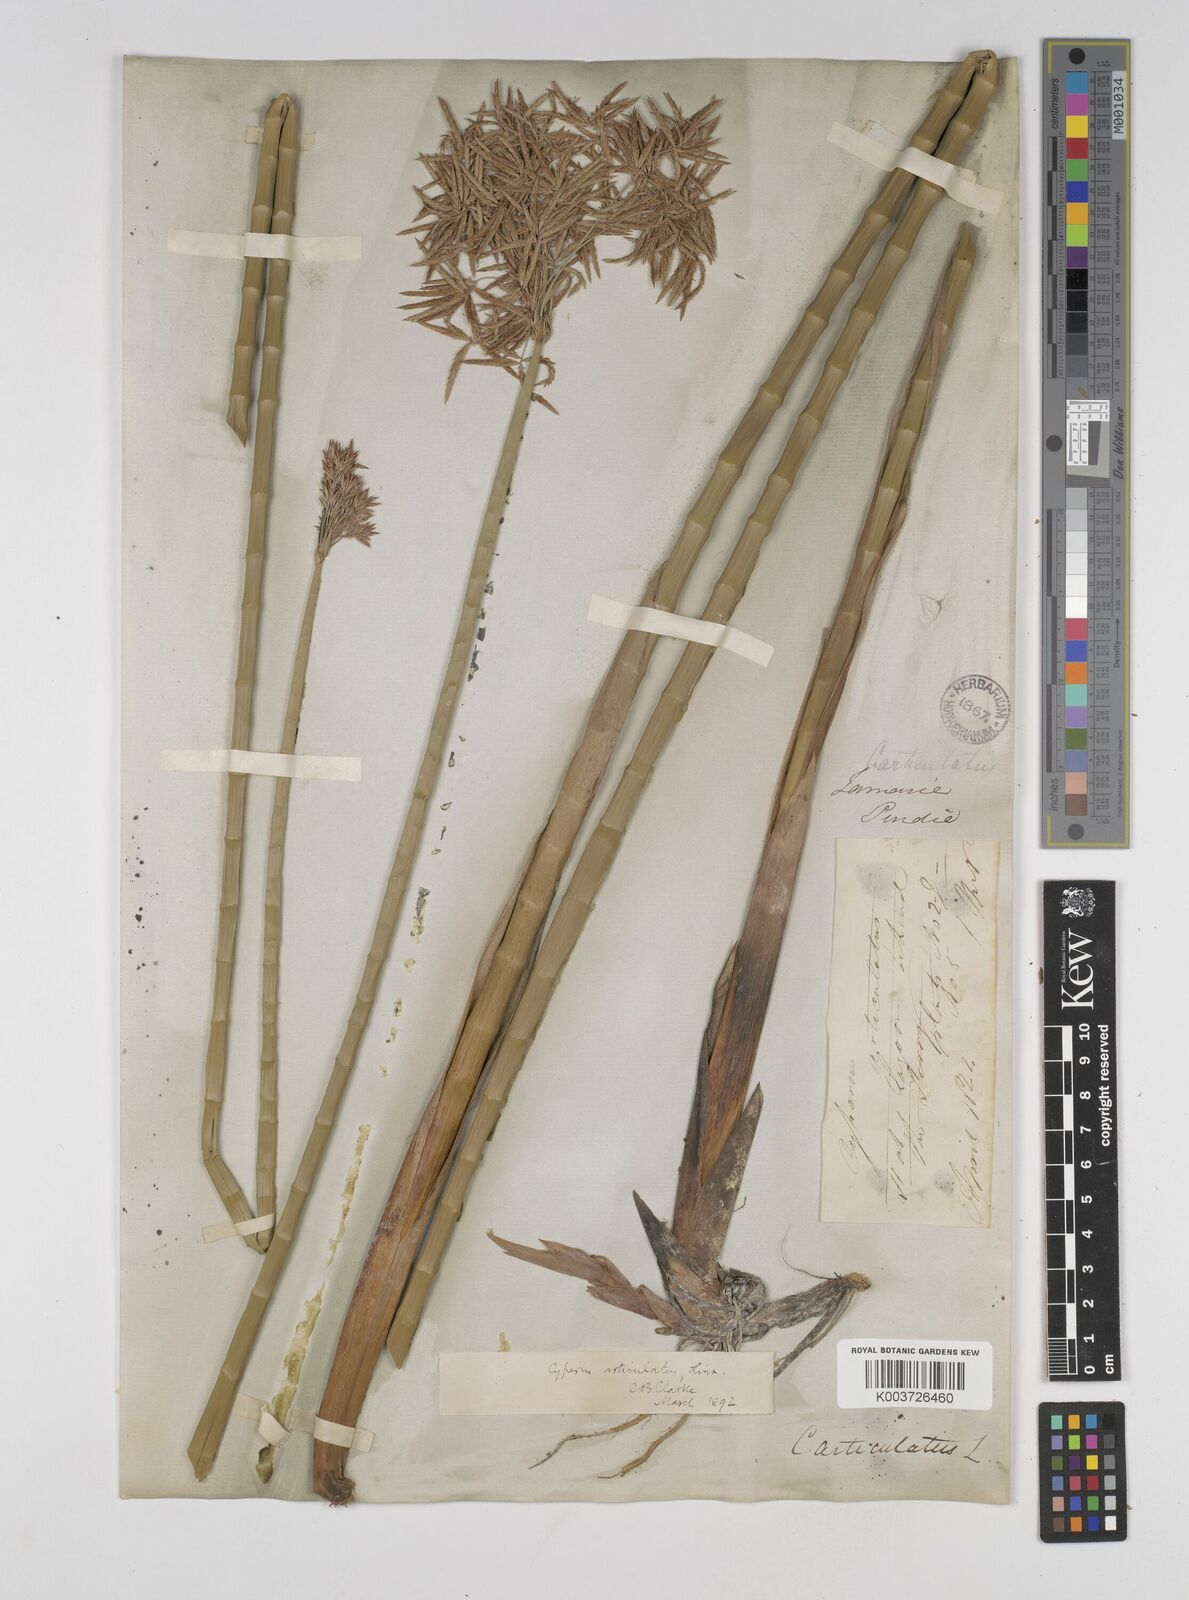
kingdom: Plantae
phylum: Tracheophyta
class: Liliopsida
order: Poales
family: Cyperaceae
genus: Cyperus
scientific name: Cyperus articulatus
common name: Jointed flatsedge
